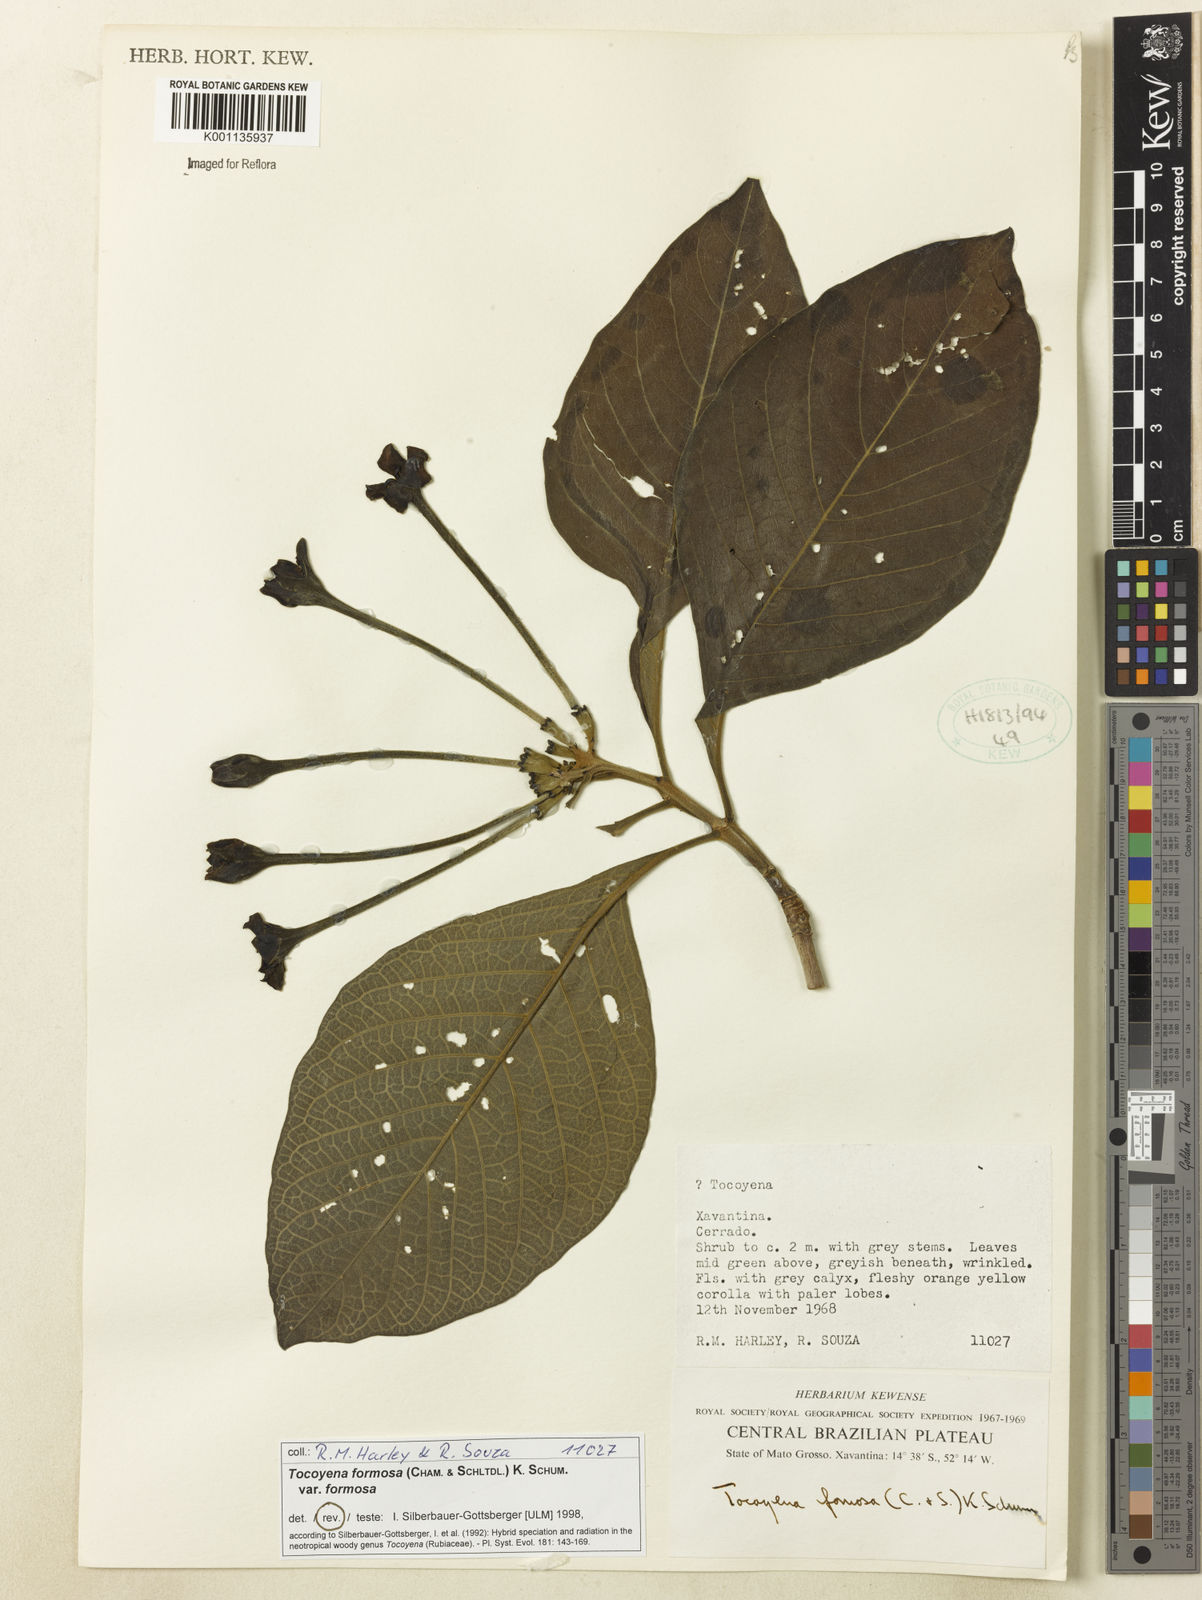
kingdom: Plantae
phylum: Tracheophyta
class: Magnoliopsida
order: Gentianales
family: Rubiaceae
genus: Tocoyena
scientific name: Tocoyena formosa
